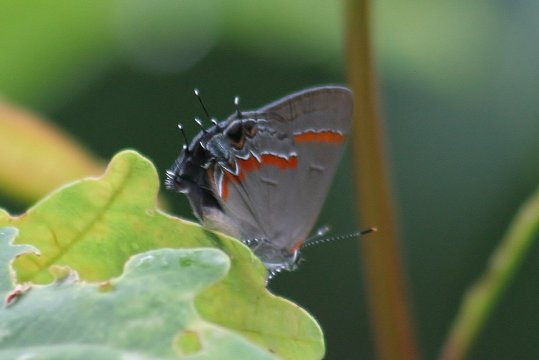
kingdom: Animalia
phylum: Arthropoda
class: Insecta
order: Lepidoptera
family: Lycaenidae
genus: Calycopis
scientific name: Calycopis cecrops
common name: Red-banded Hairstreak
